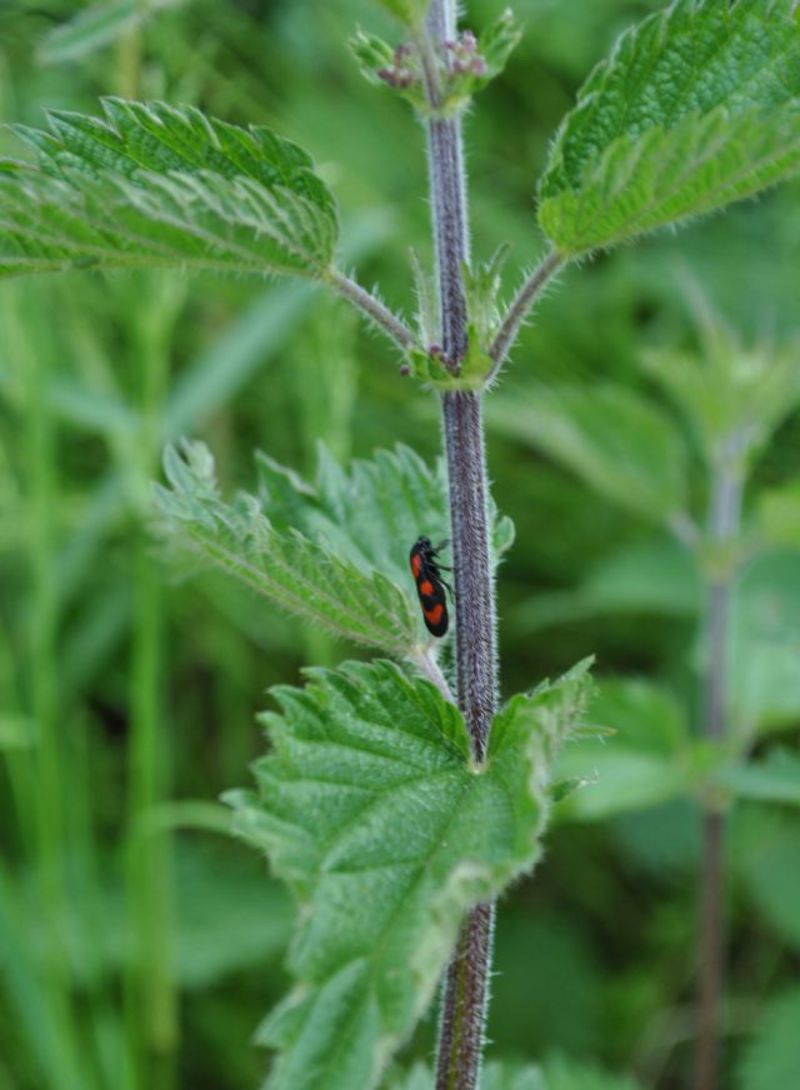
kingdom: Animalia
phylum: Arthropoda
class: Insecta
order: Lepidoptera
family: Psychidae
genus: Psyche
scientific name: Psyche casta
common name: Common sweep
